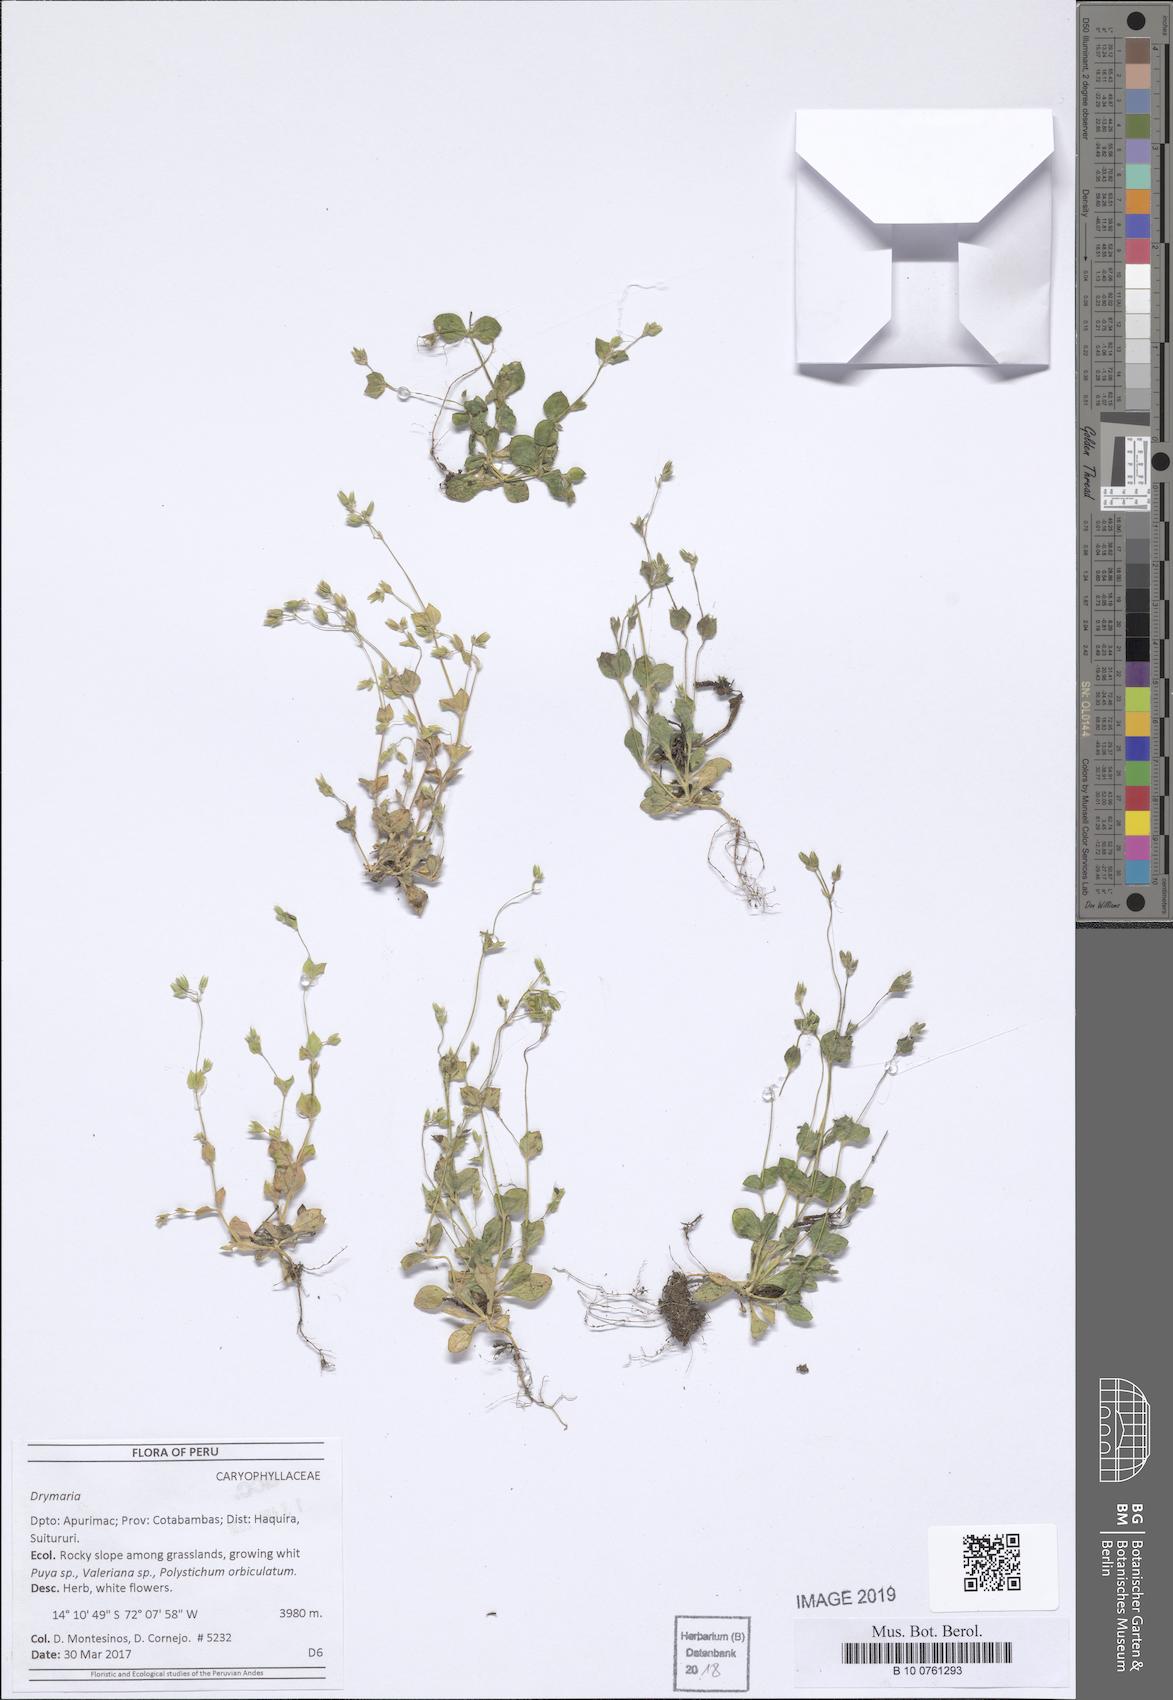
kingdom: Plantae
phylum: Tracheophyta
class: Magnoliopsida
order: Caryophyllales
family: Caryophyllaceae
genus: Drymaria
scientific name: Drymaria
